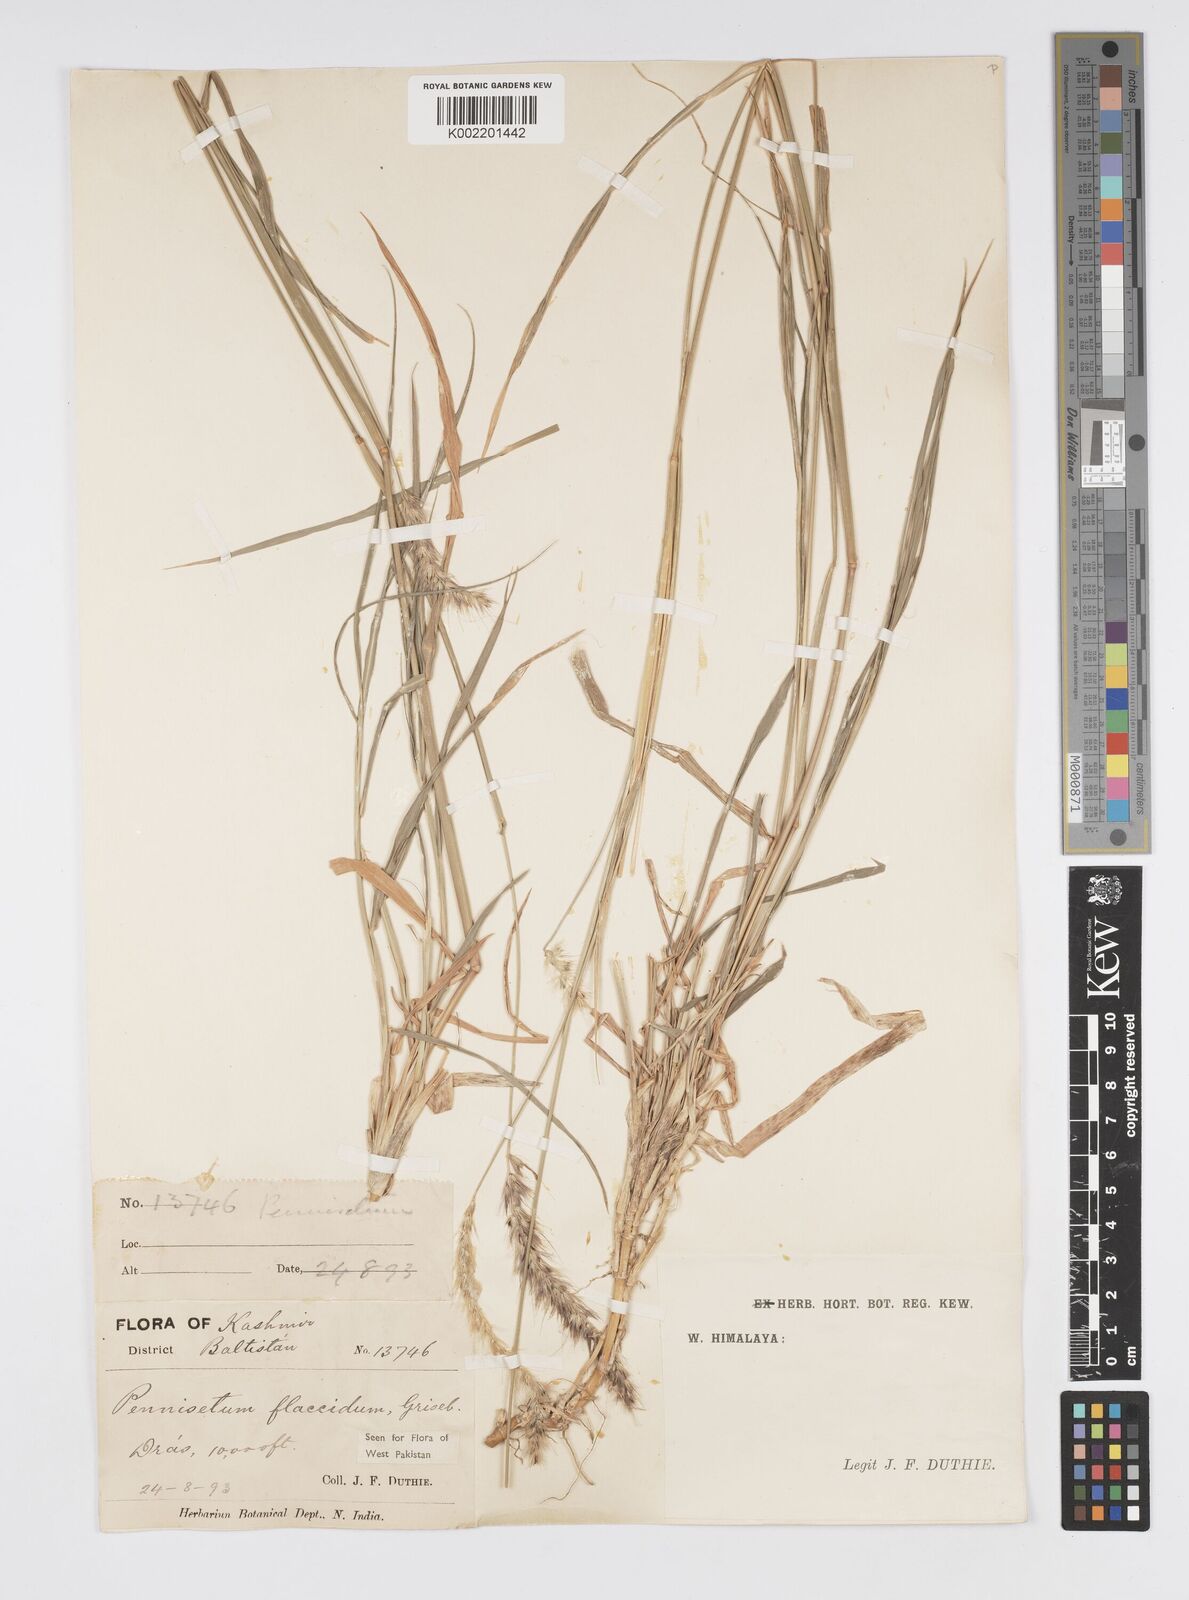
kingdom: Plantae
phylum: Tracheophyta
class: Liliopsida
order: Poales
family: Poaceae
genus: Cenchrus
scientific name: Cenchrus flaccidus
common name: Flaccid grass
